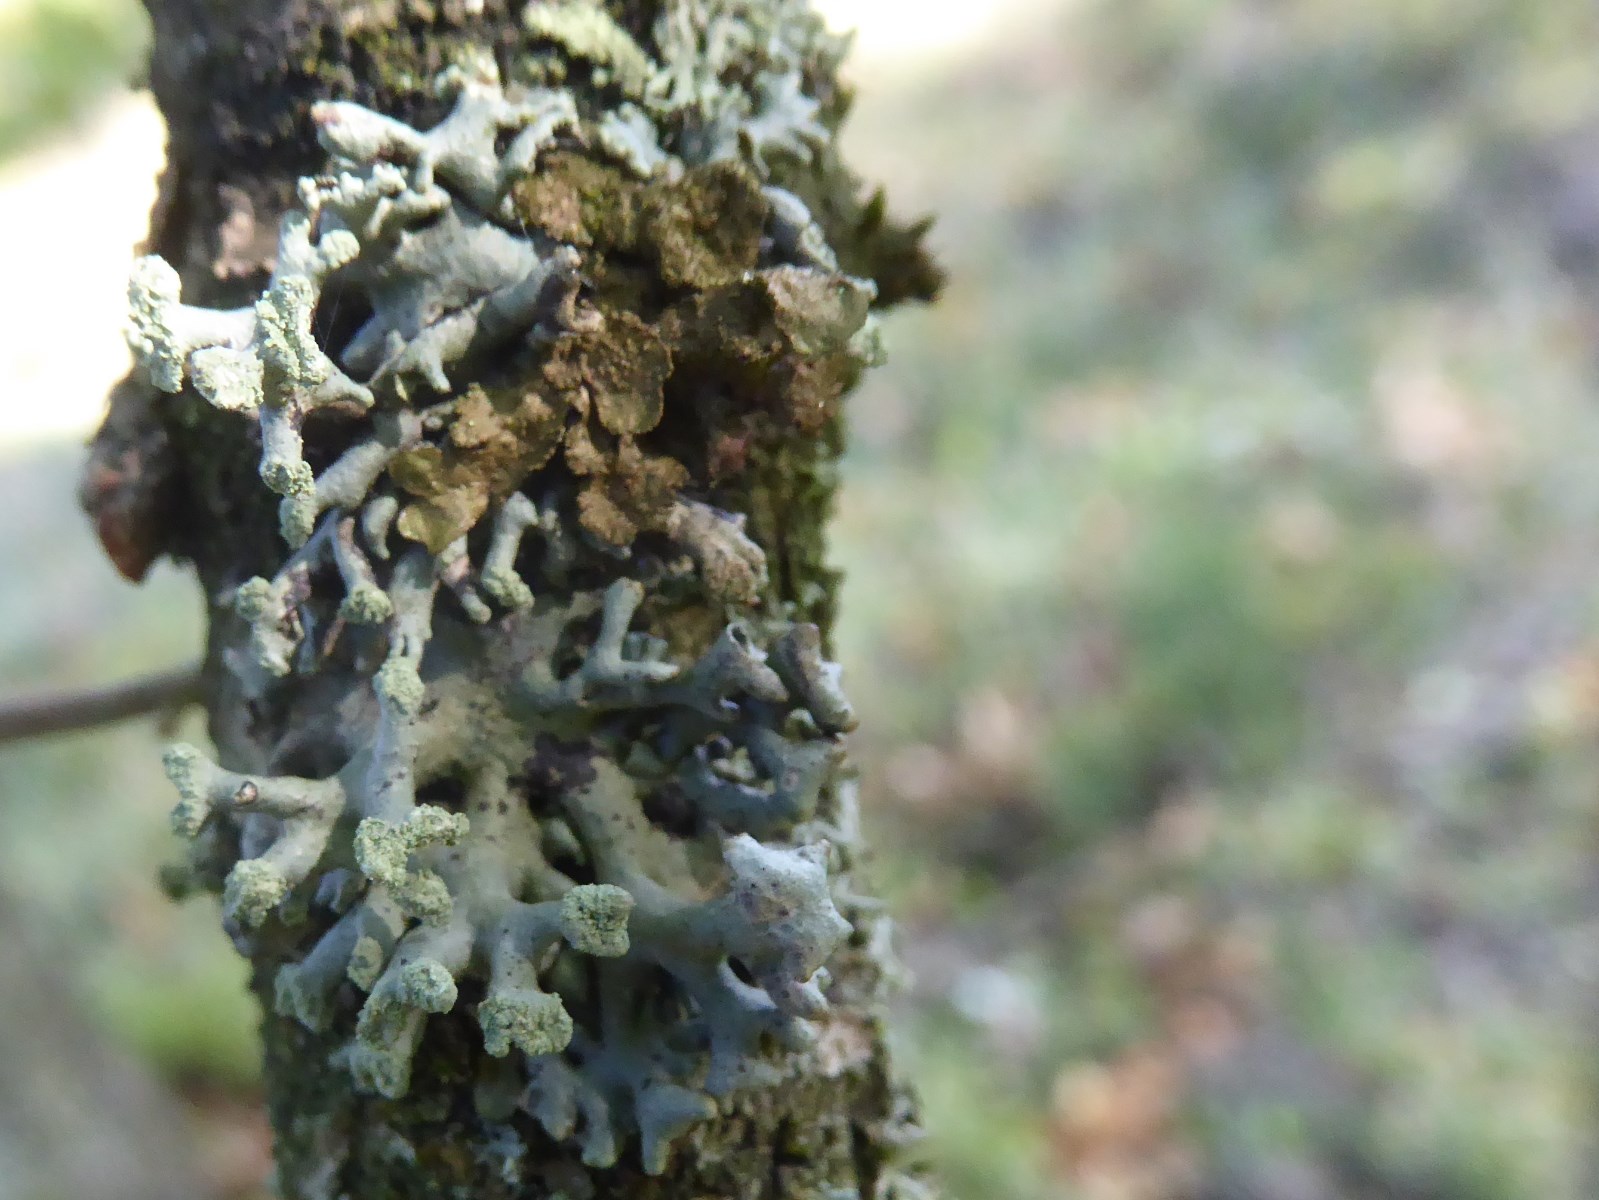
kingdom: Fungi
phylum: Ascomycota
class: Lecanoromycetes
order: Lecanorales
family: Parmeliaceae
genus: Hypogymnia
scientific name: Hypogymnia tubulosa
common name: finger-kvistlav
